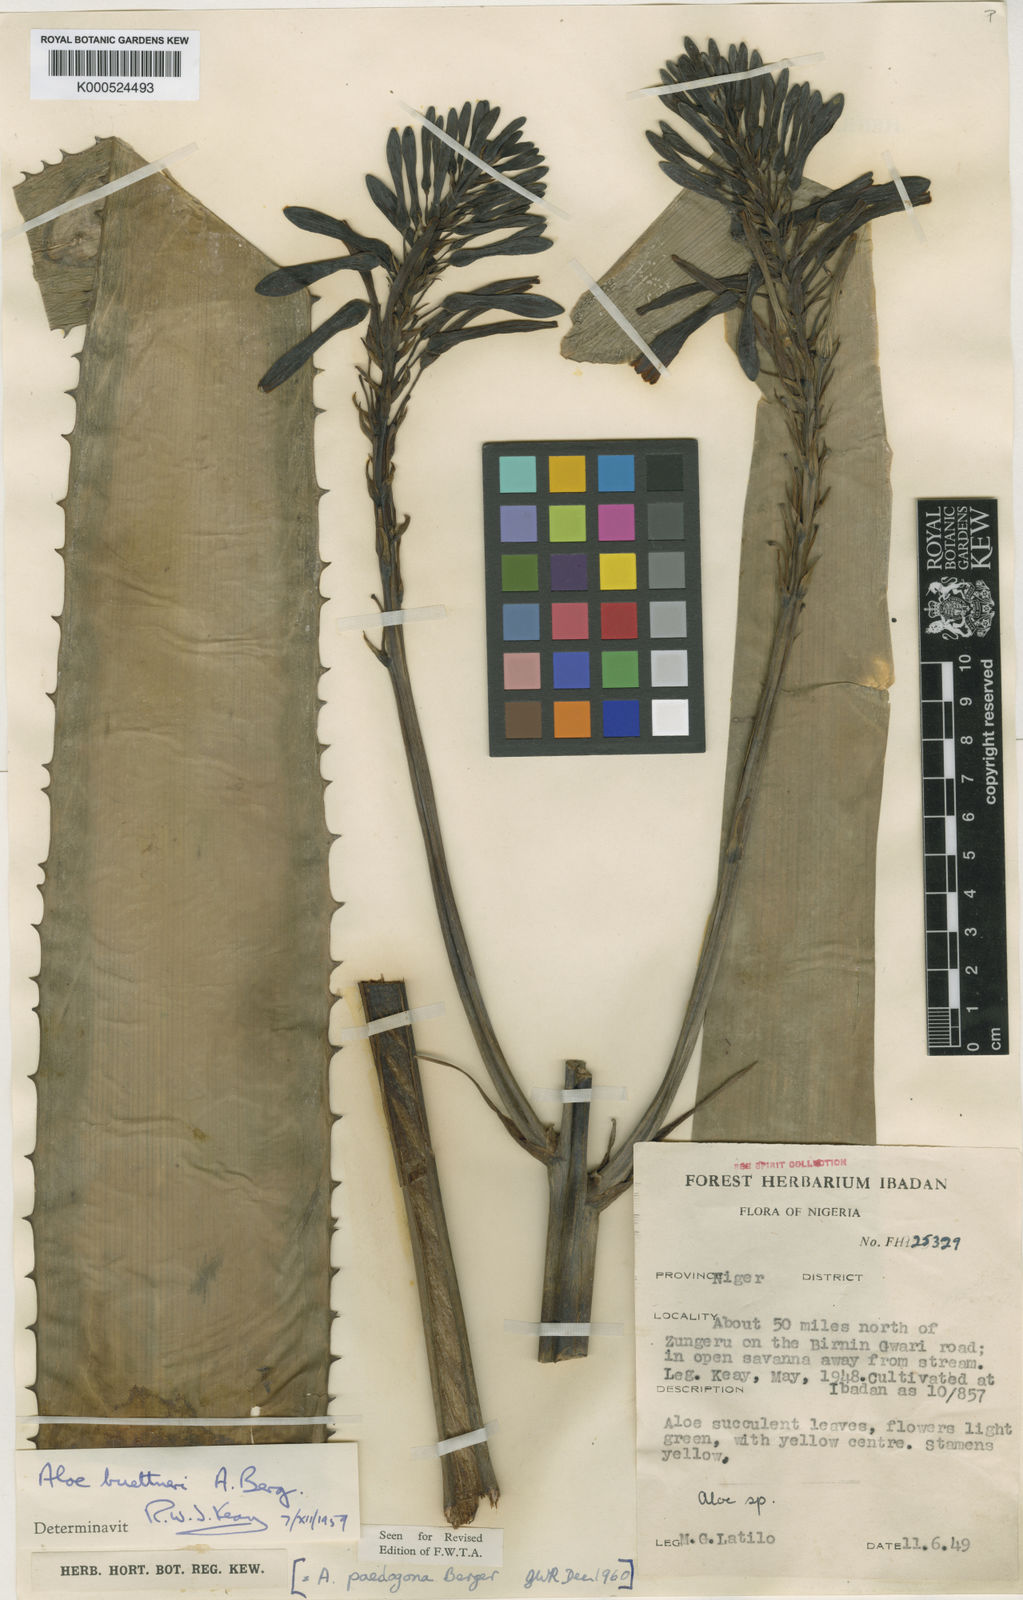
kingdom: Plantae
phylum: Tracheophyta
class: Liliopsida
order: Asparagales
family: Asphodelaceae
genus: Aloe
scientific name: Aloe buettneri
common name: West african aloe
